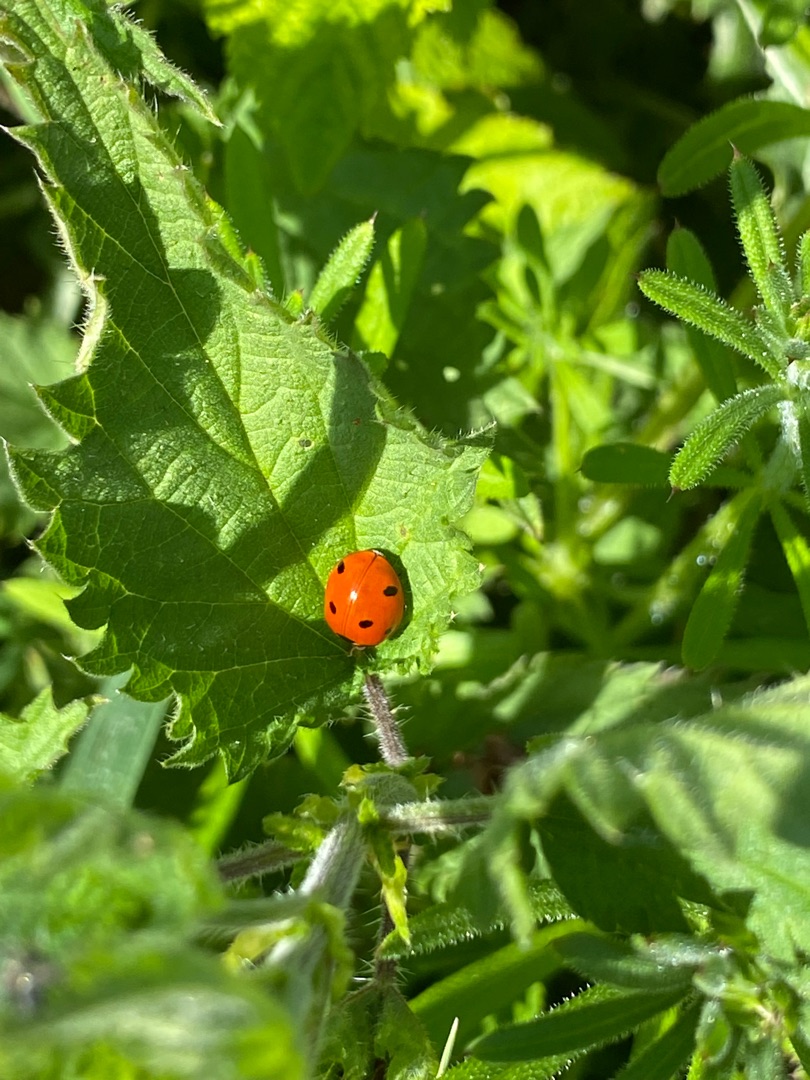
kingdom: Animalia
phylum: Arthropoda
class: Insecta
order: Coleoptera
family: Coccinellidae
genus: Coccinella
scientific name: Coccinella septempunctata
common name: Syvplettet mariehøne
